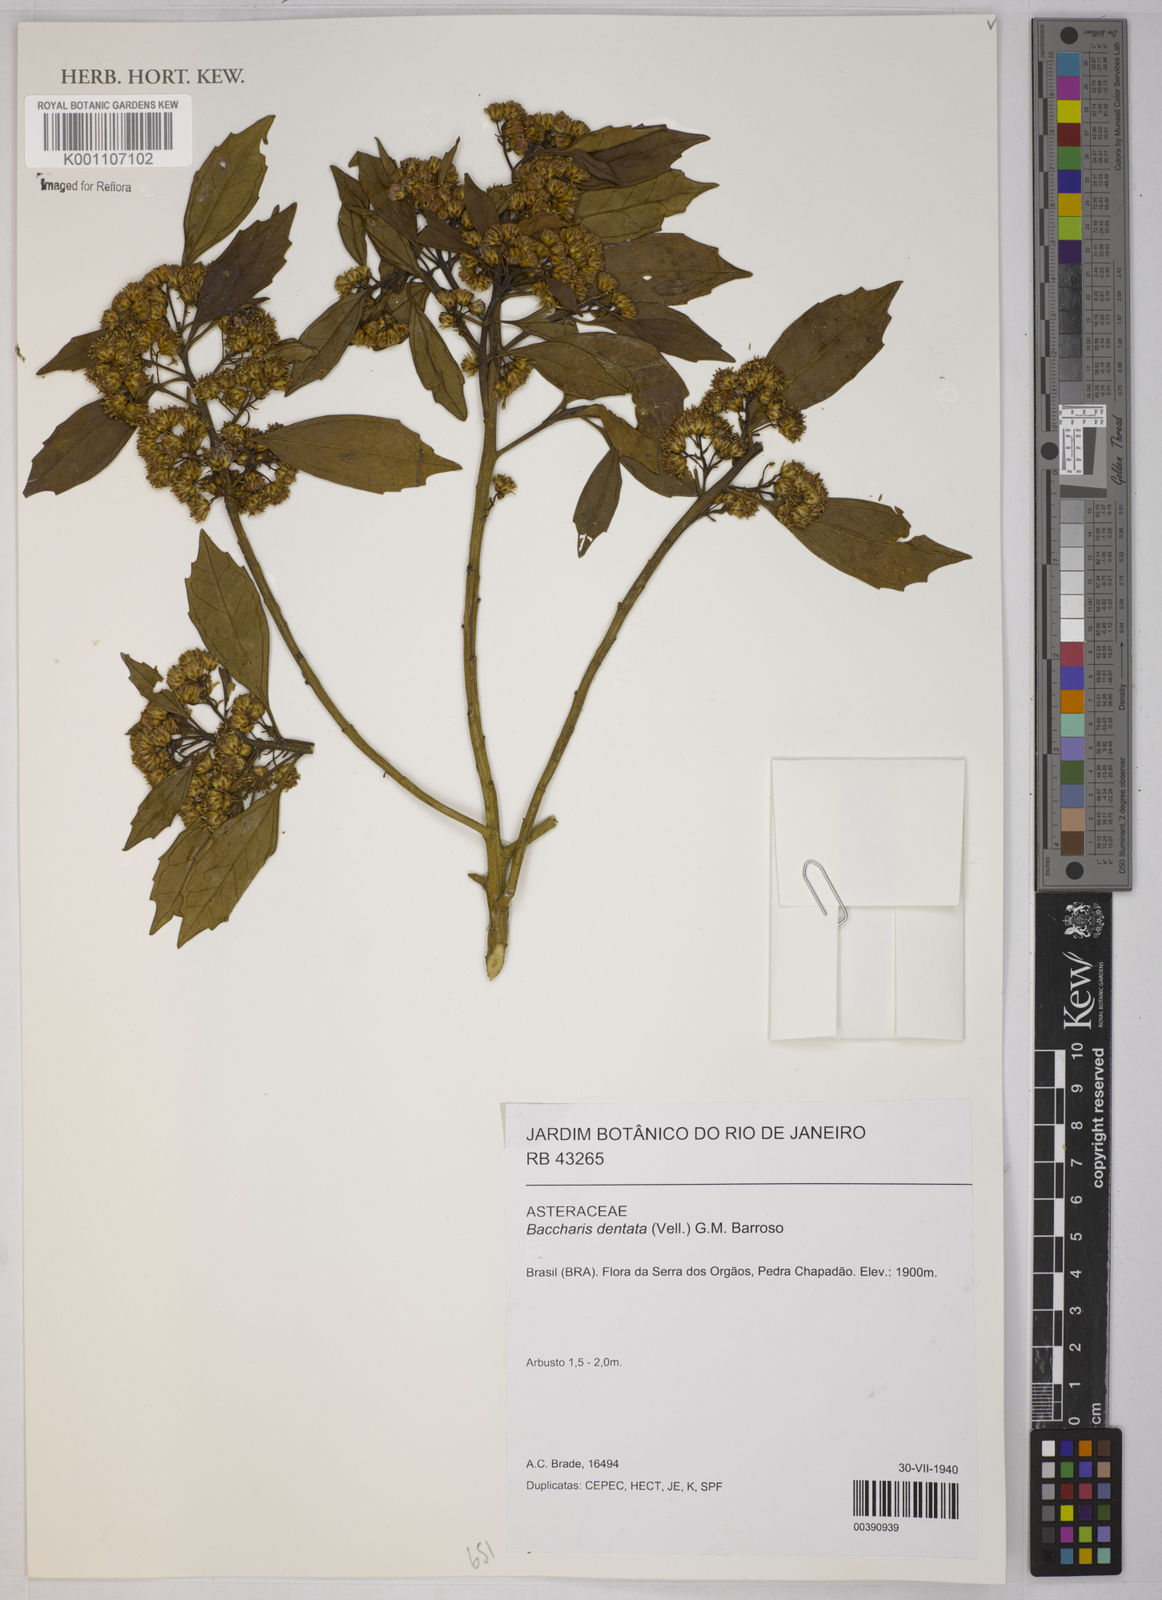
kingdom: Plantae
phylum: Tracheophyta
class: Magnoliopsida
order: Asterales
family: Asteraceae
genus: Baccharis
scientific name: Baccharis dentata
